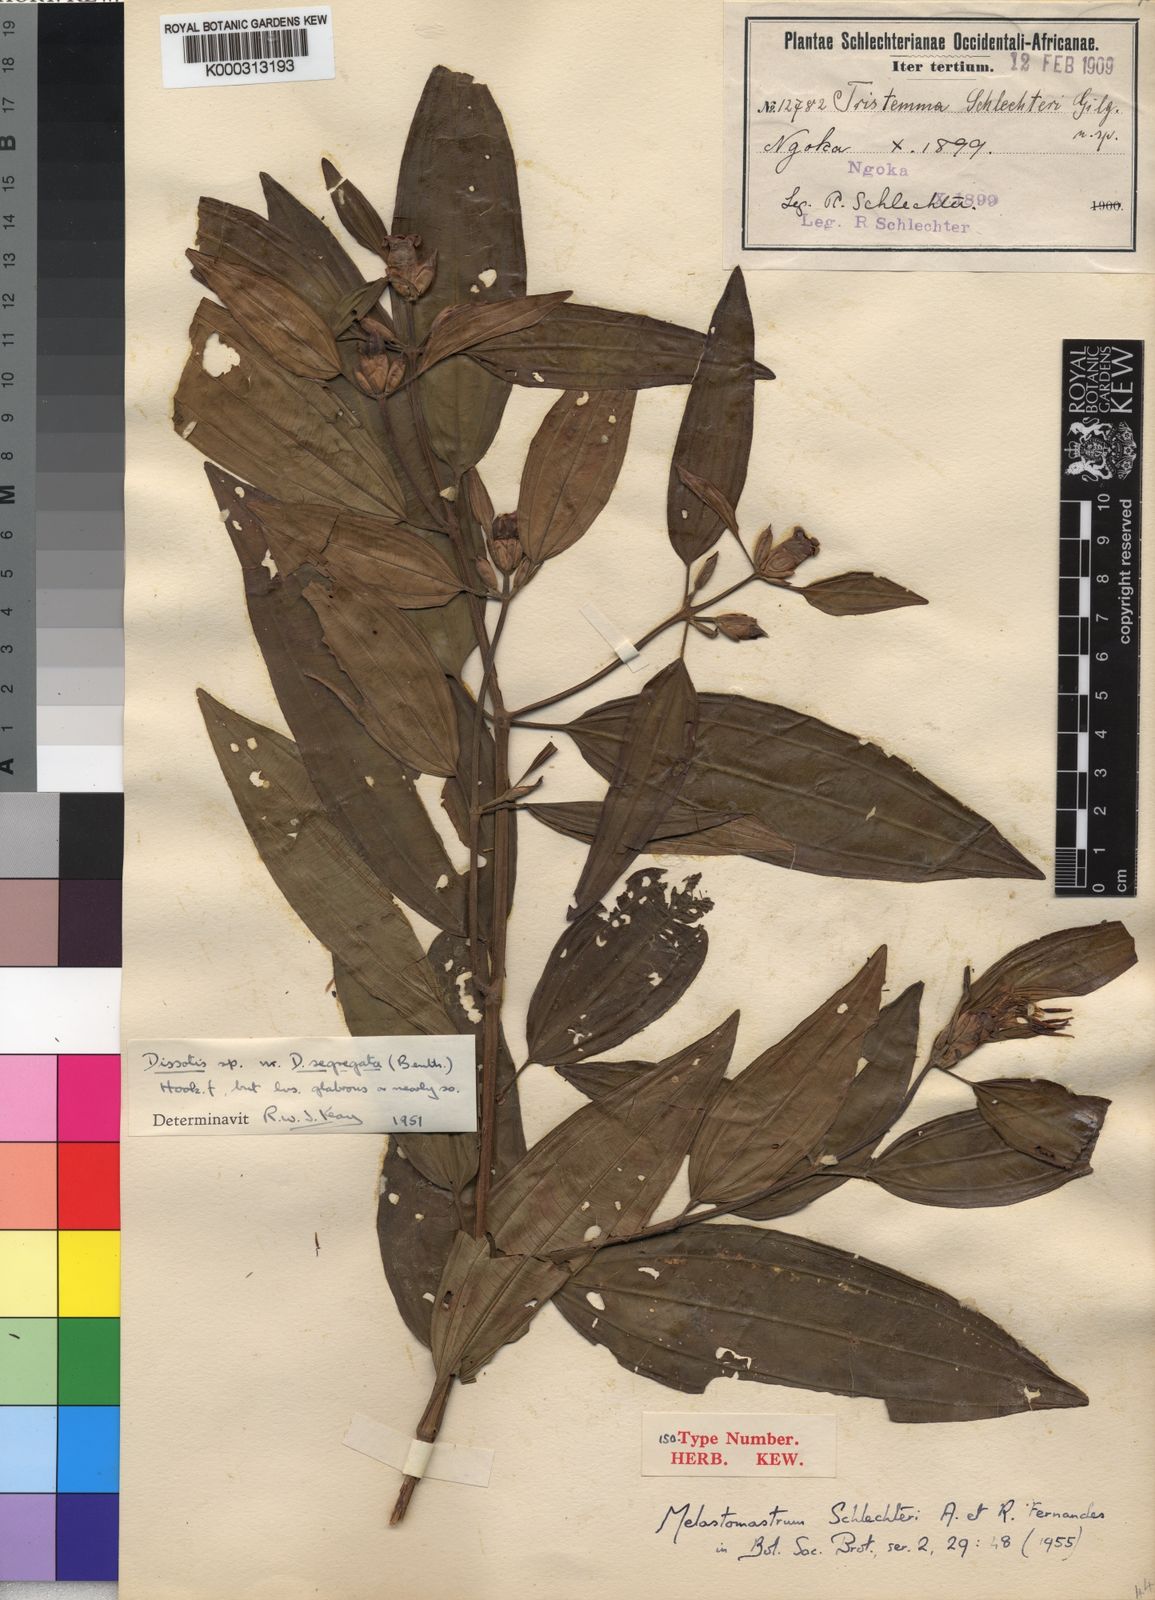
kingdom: Plantae
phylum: Tracheophyta
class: Magnoliopsida
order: Myrtales
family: Melastomataceae
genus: Melastomastrum
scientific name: Melastomastrum segregatum
